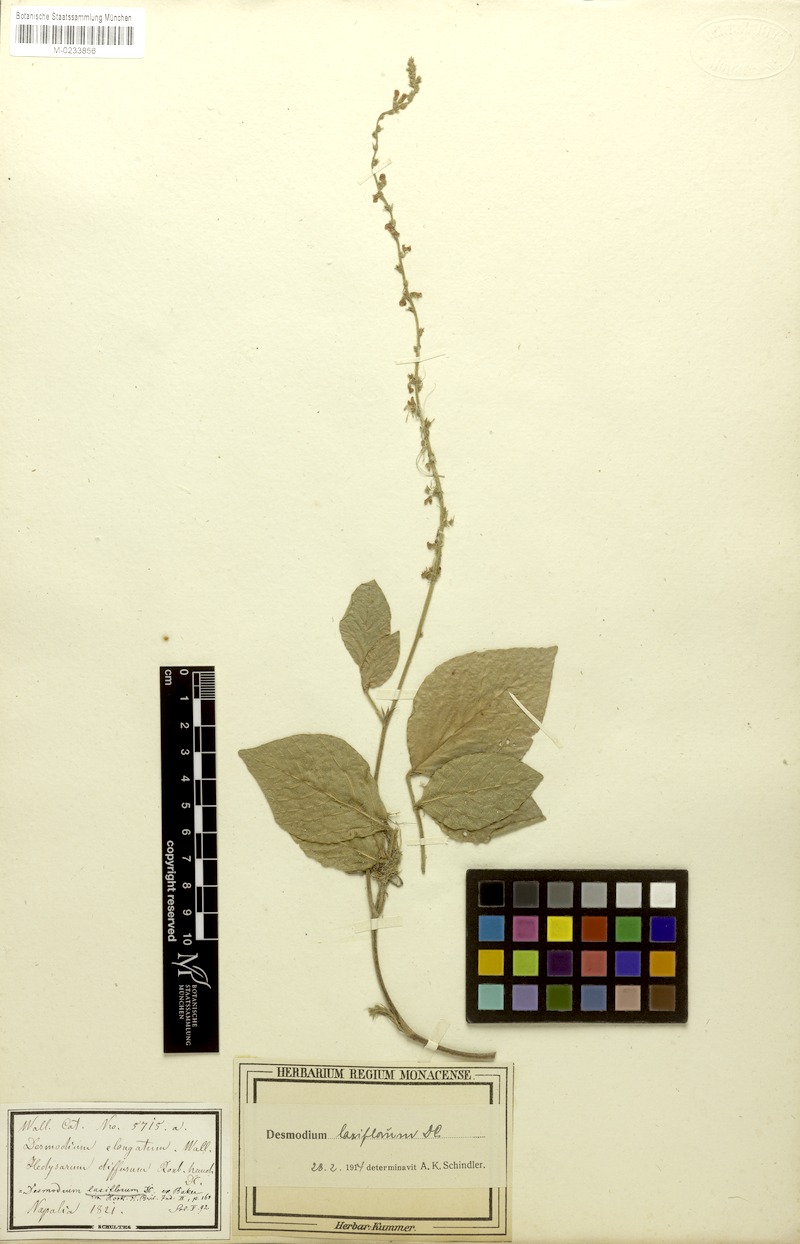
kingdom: Plantae
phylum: Tracheophyta
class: Magnoliopsida
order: Fabales
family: Fabaceae
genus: Sohmaea
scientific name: Sohmaea laxiflora
